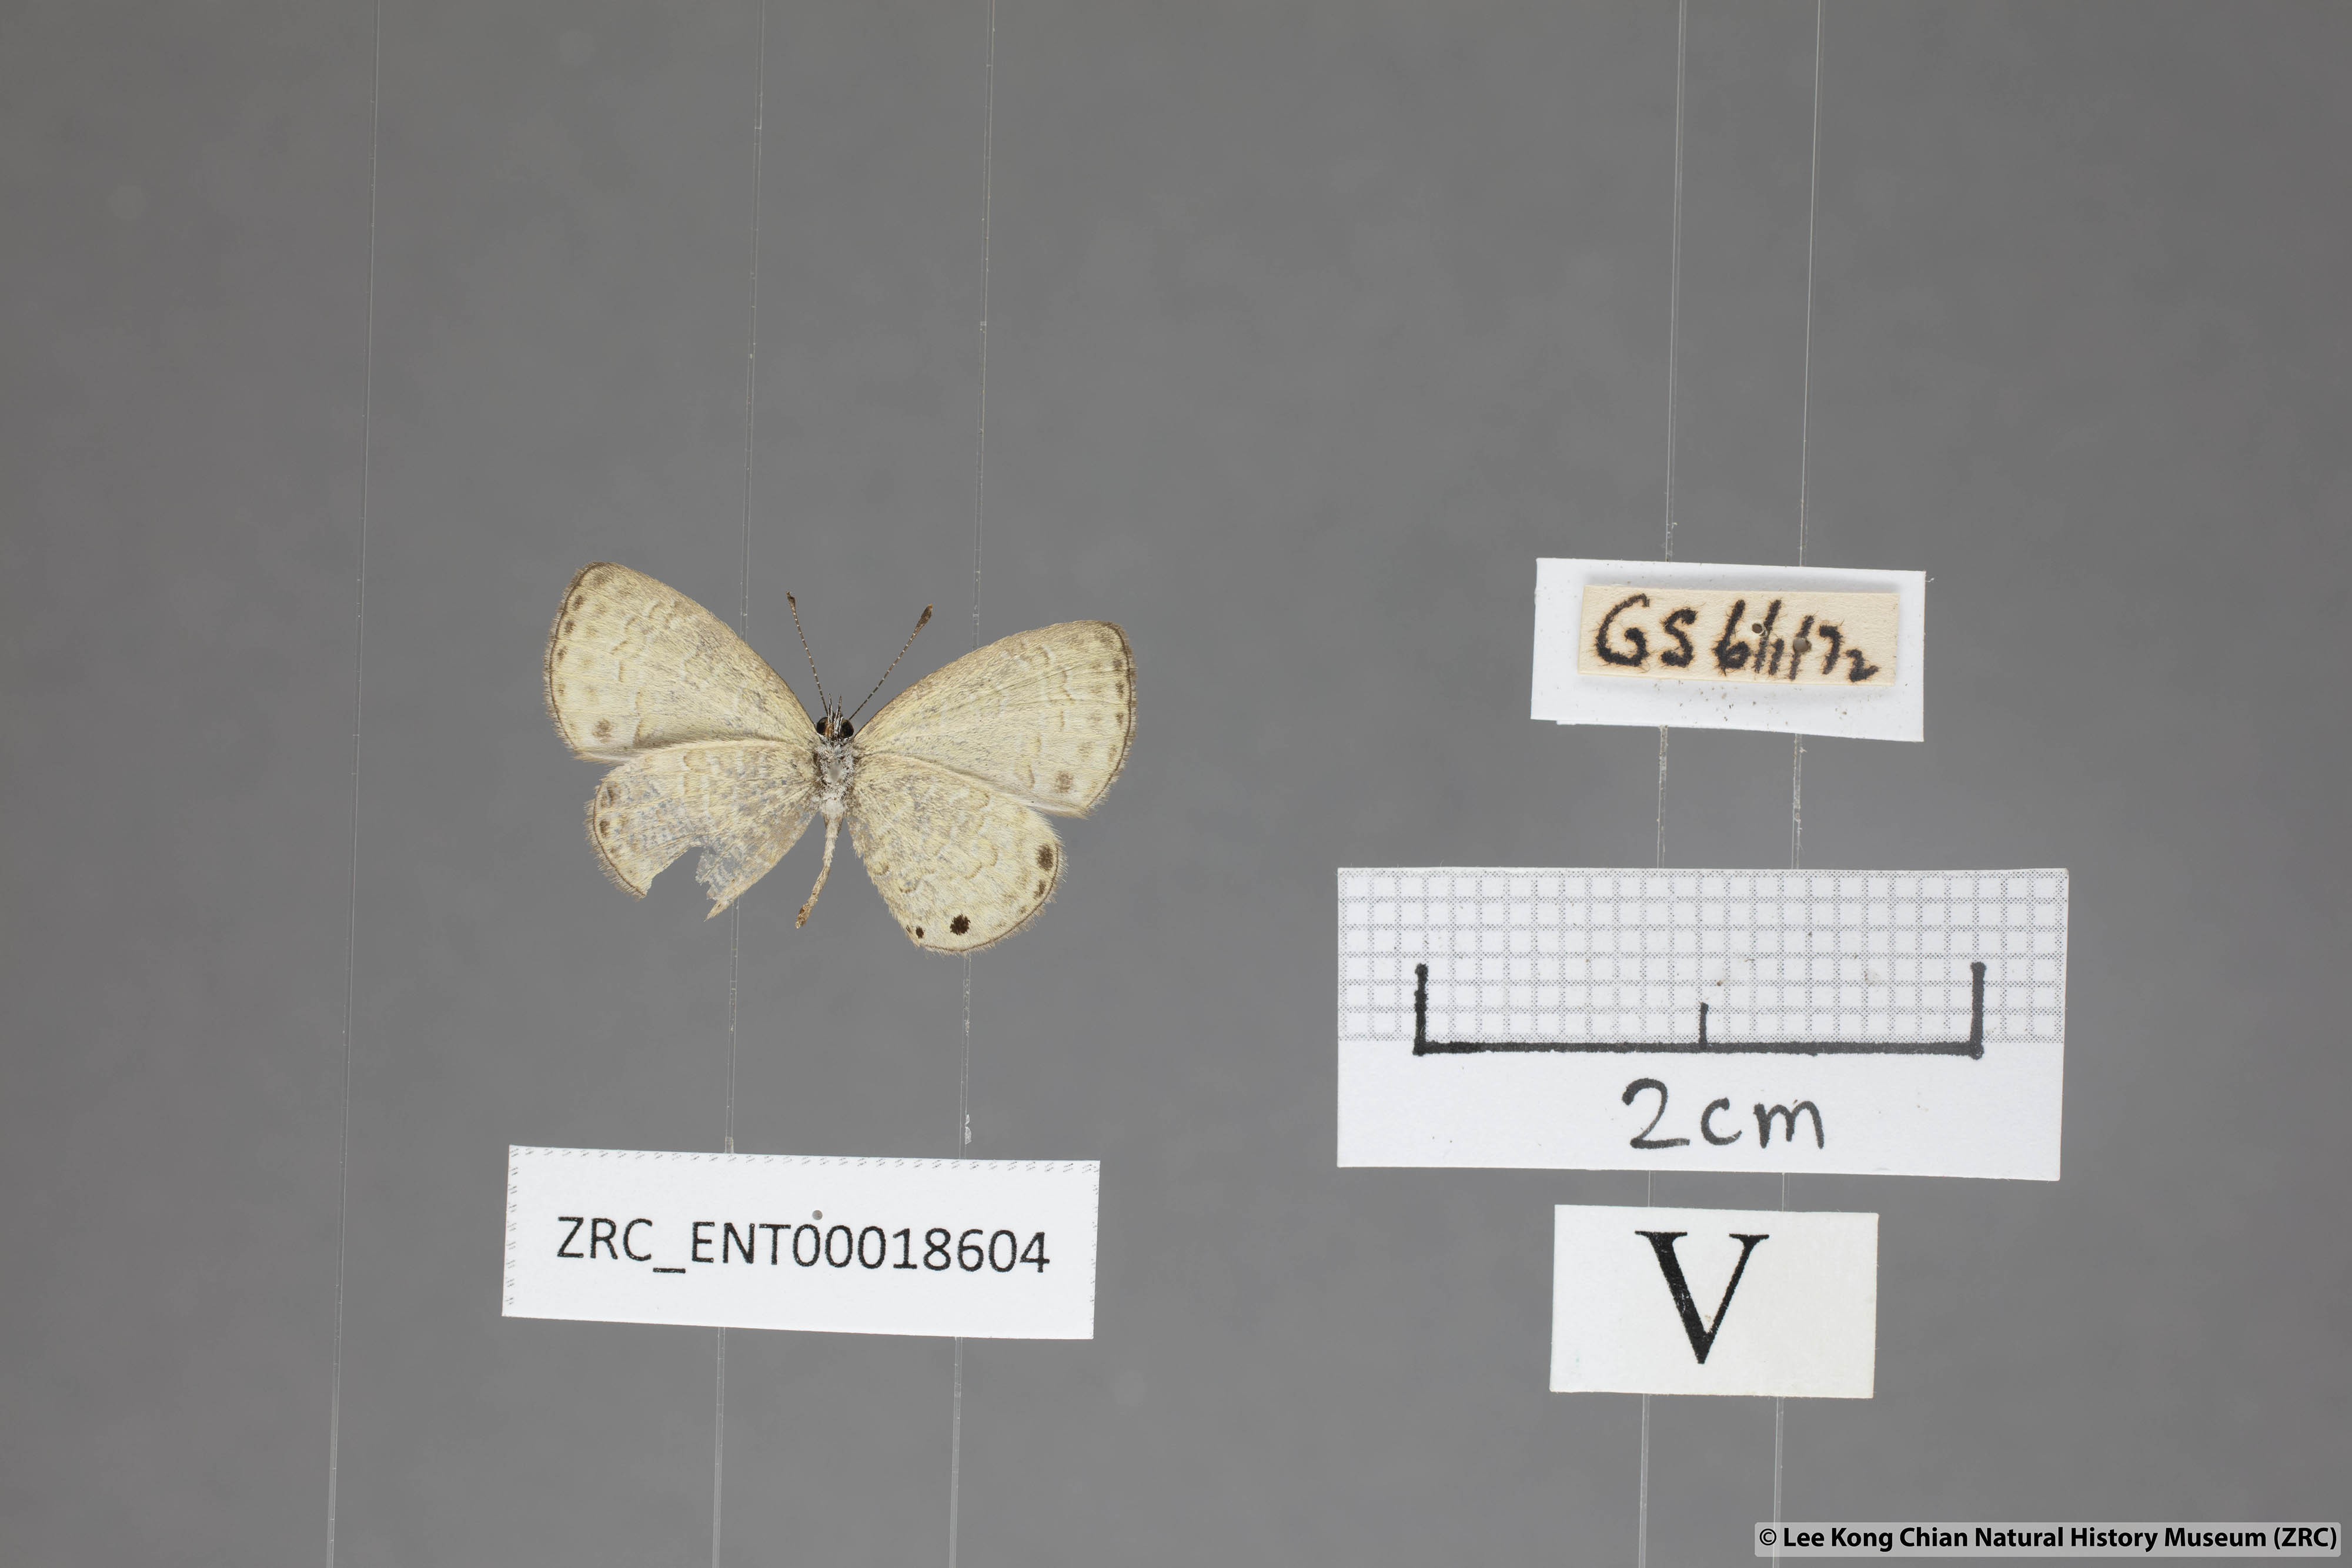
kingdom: Animalia
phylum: Arthropoda
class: Insecta
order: Lepidoptera
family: Lycaenidae
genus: Prosotas
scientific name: Prosotas lutea
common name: Brown lineblue
